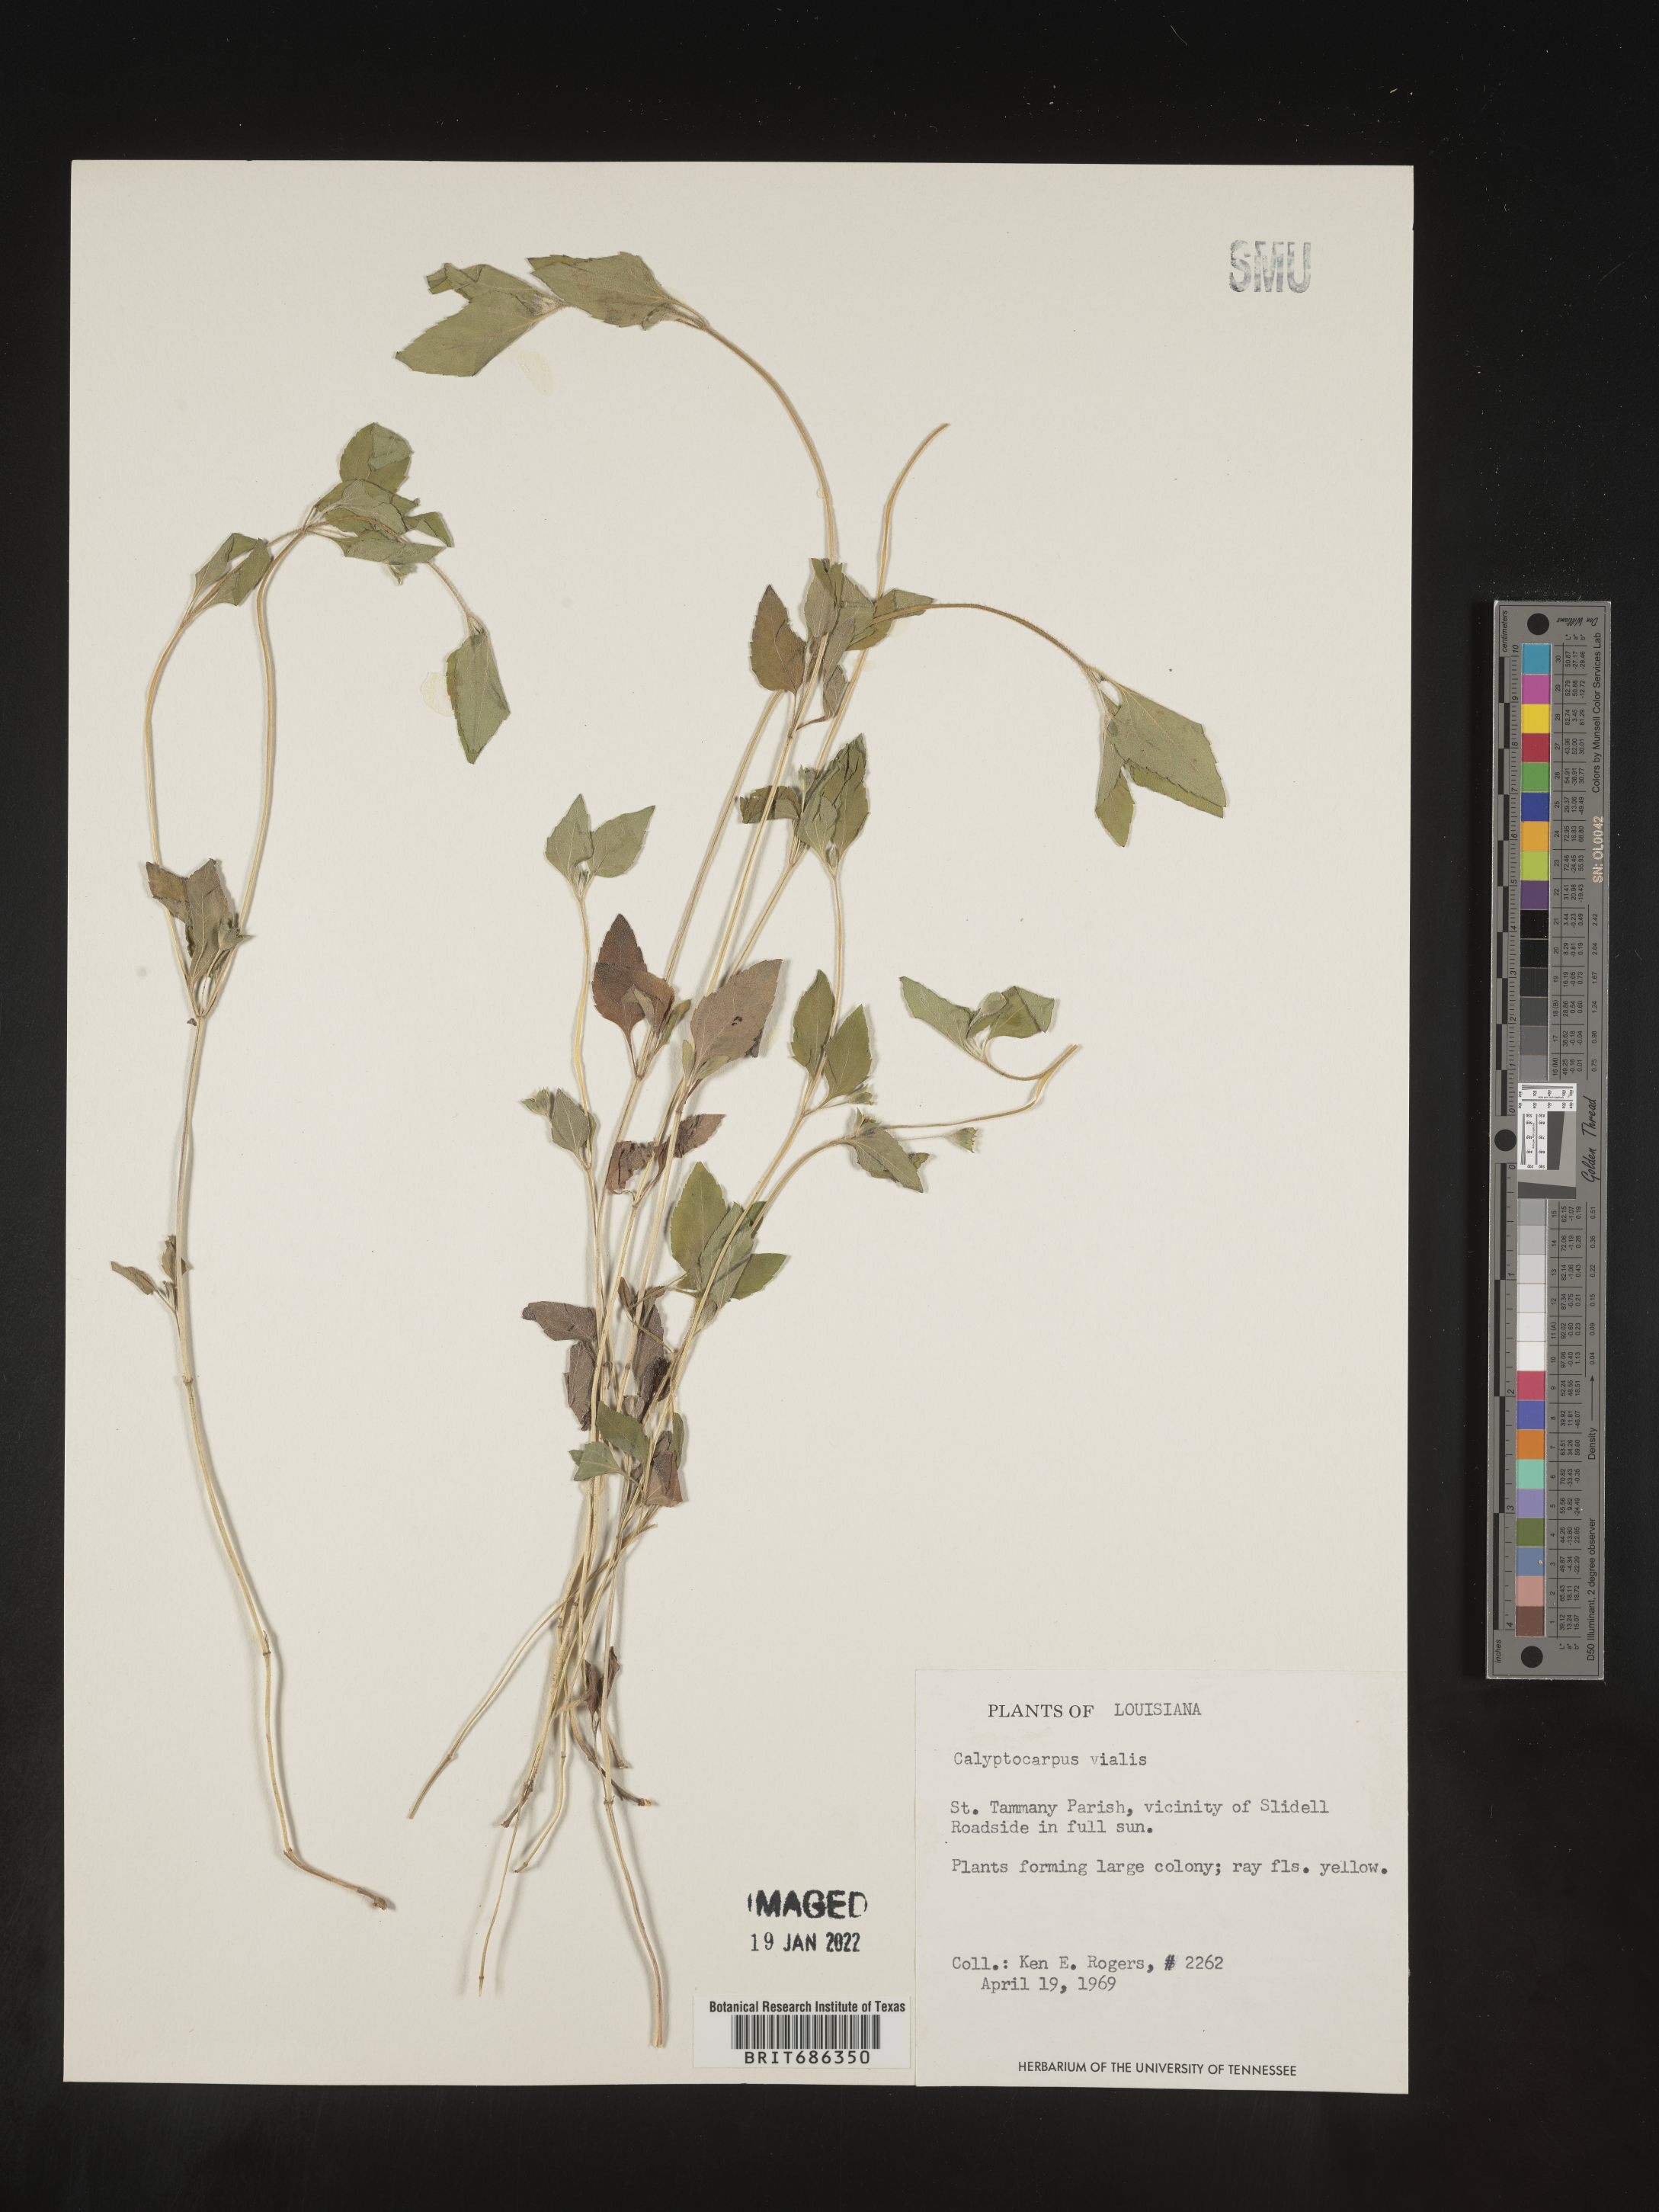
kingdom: Plantae
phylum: Tracheophyta
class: Magnoliopsida
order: Asterales
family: Asteraceae
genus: Calyptocarpus
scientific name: Calyptocarpus
